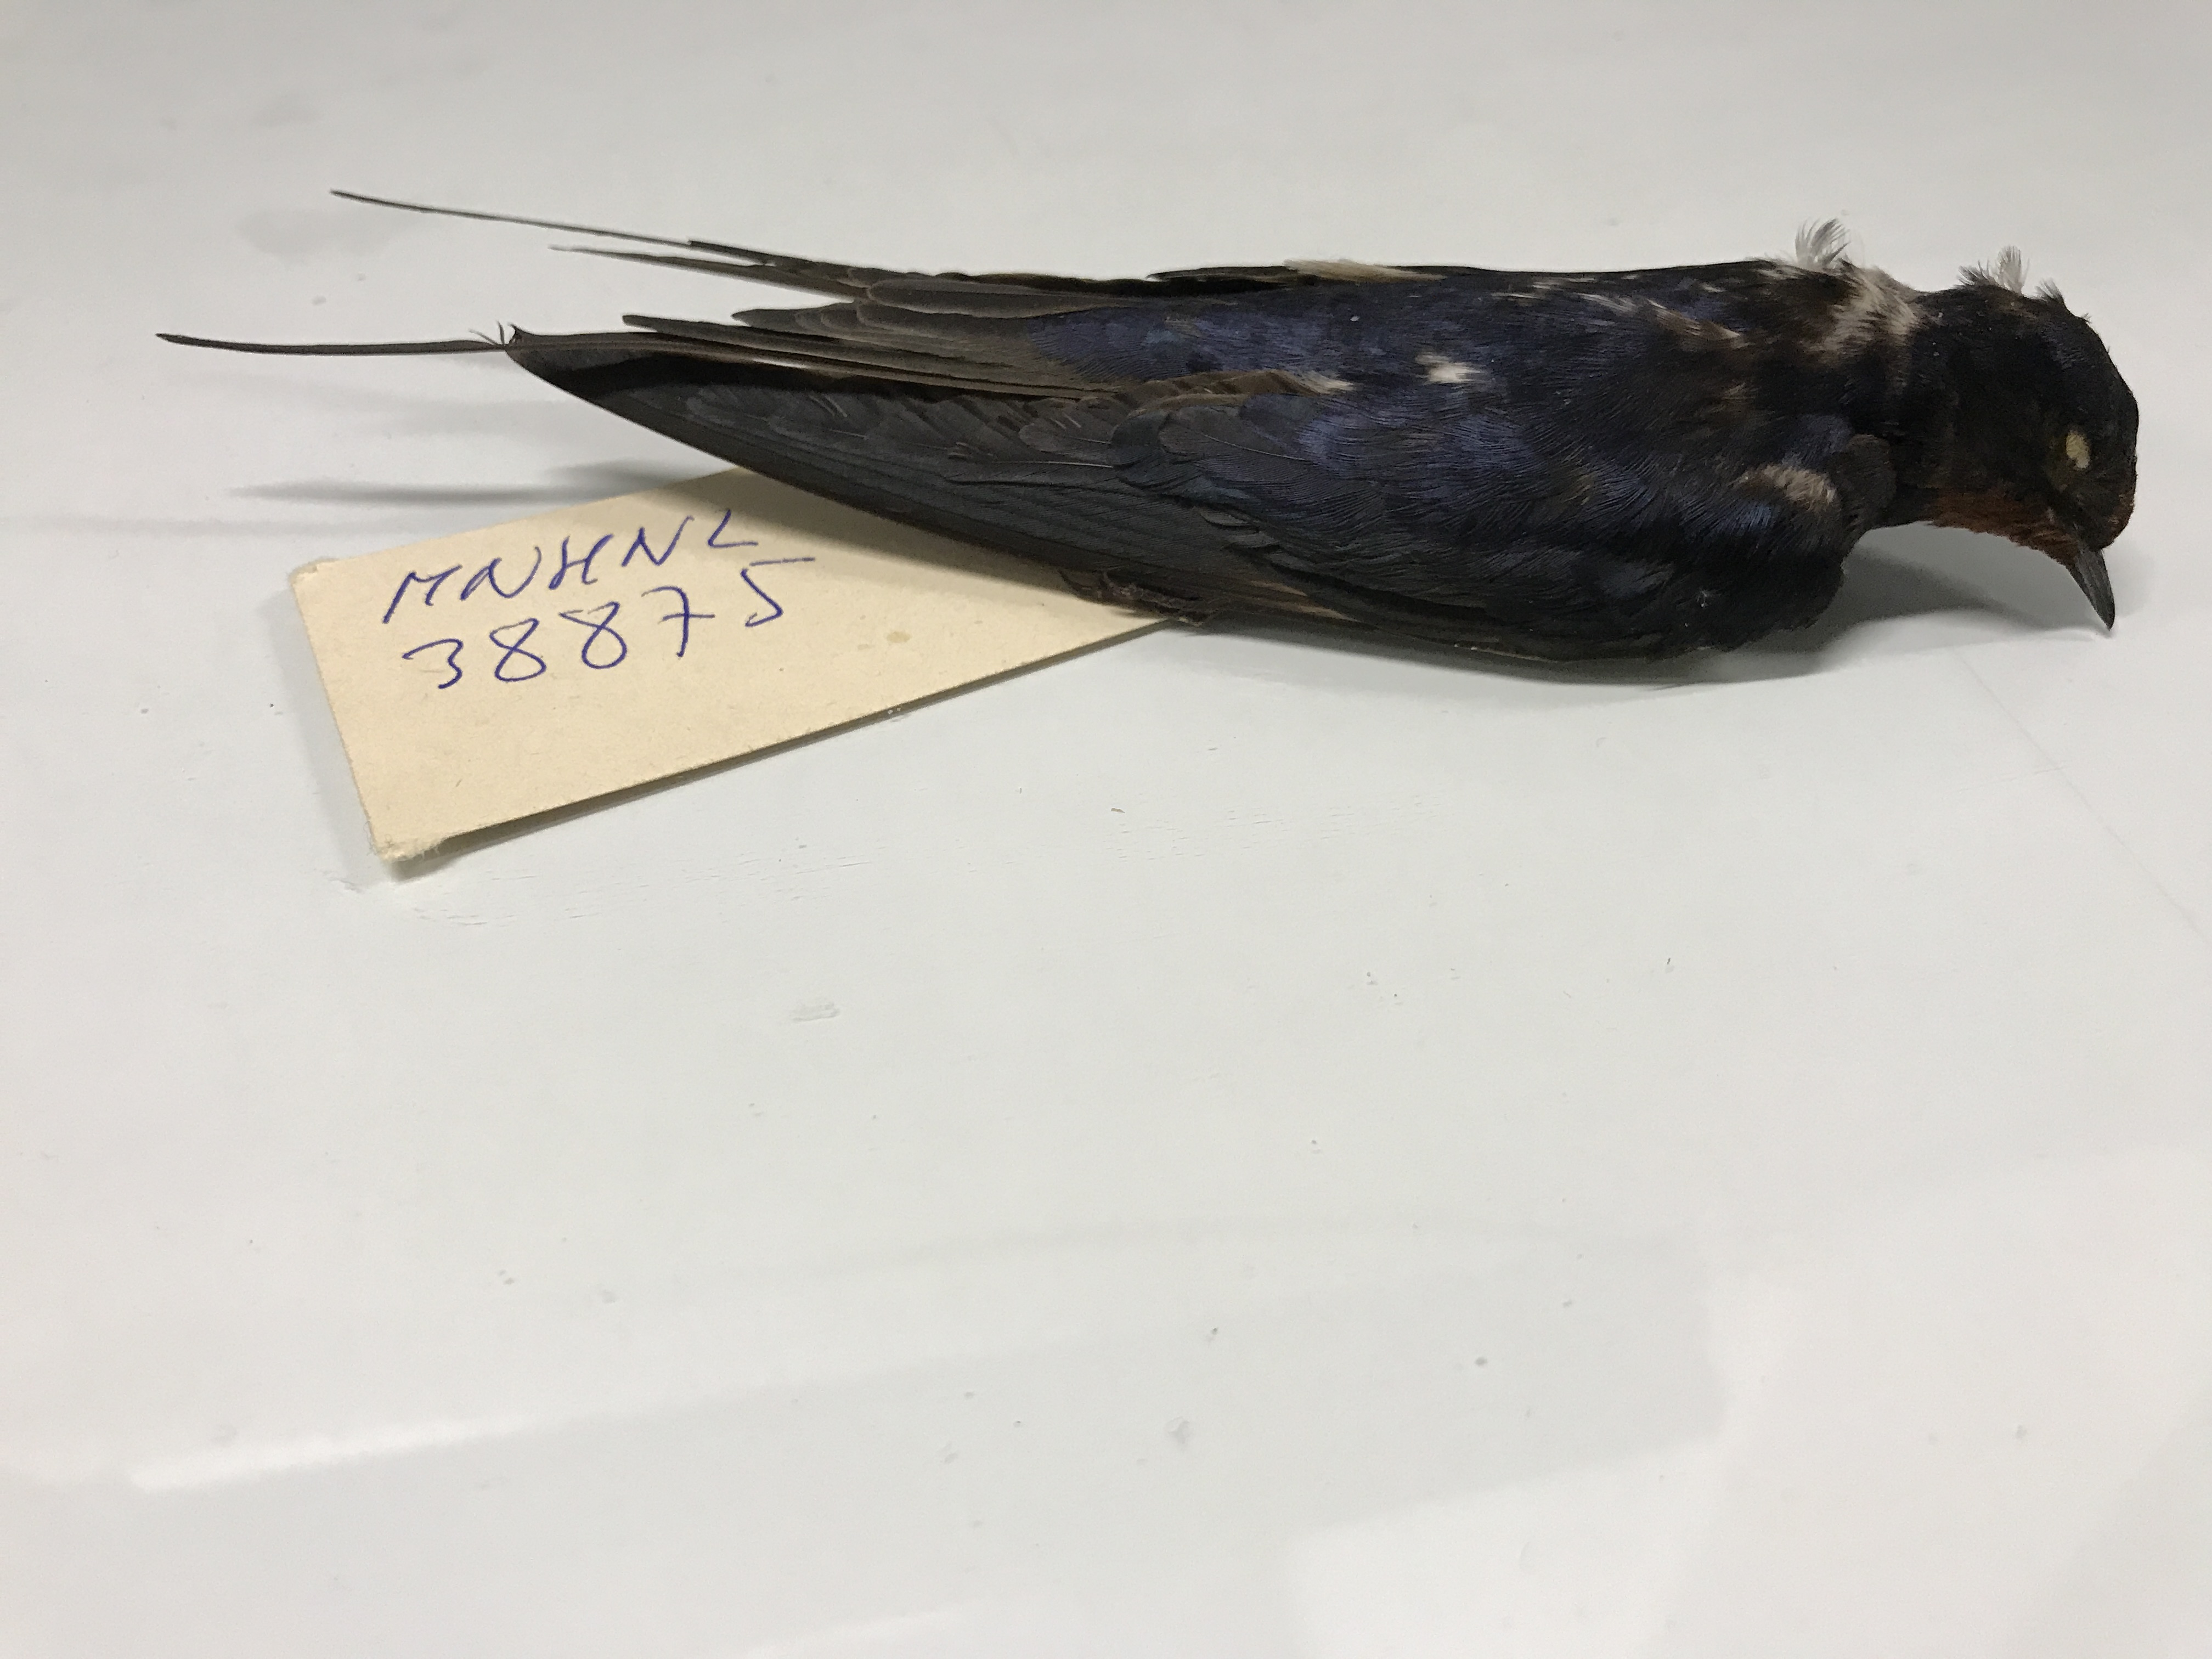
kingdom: Animalia
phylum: Chordata
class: Aves
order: Passeriformes
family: Hirundinidae
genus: Hirundo
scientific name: Hirundo rustica
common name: Barn swallow
